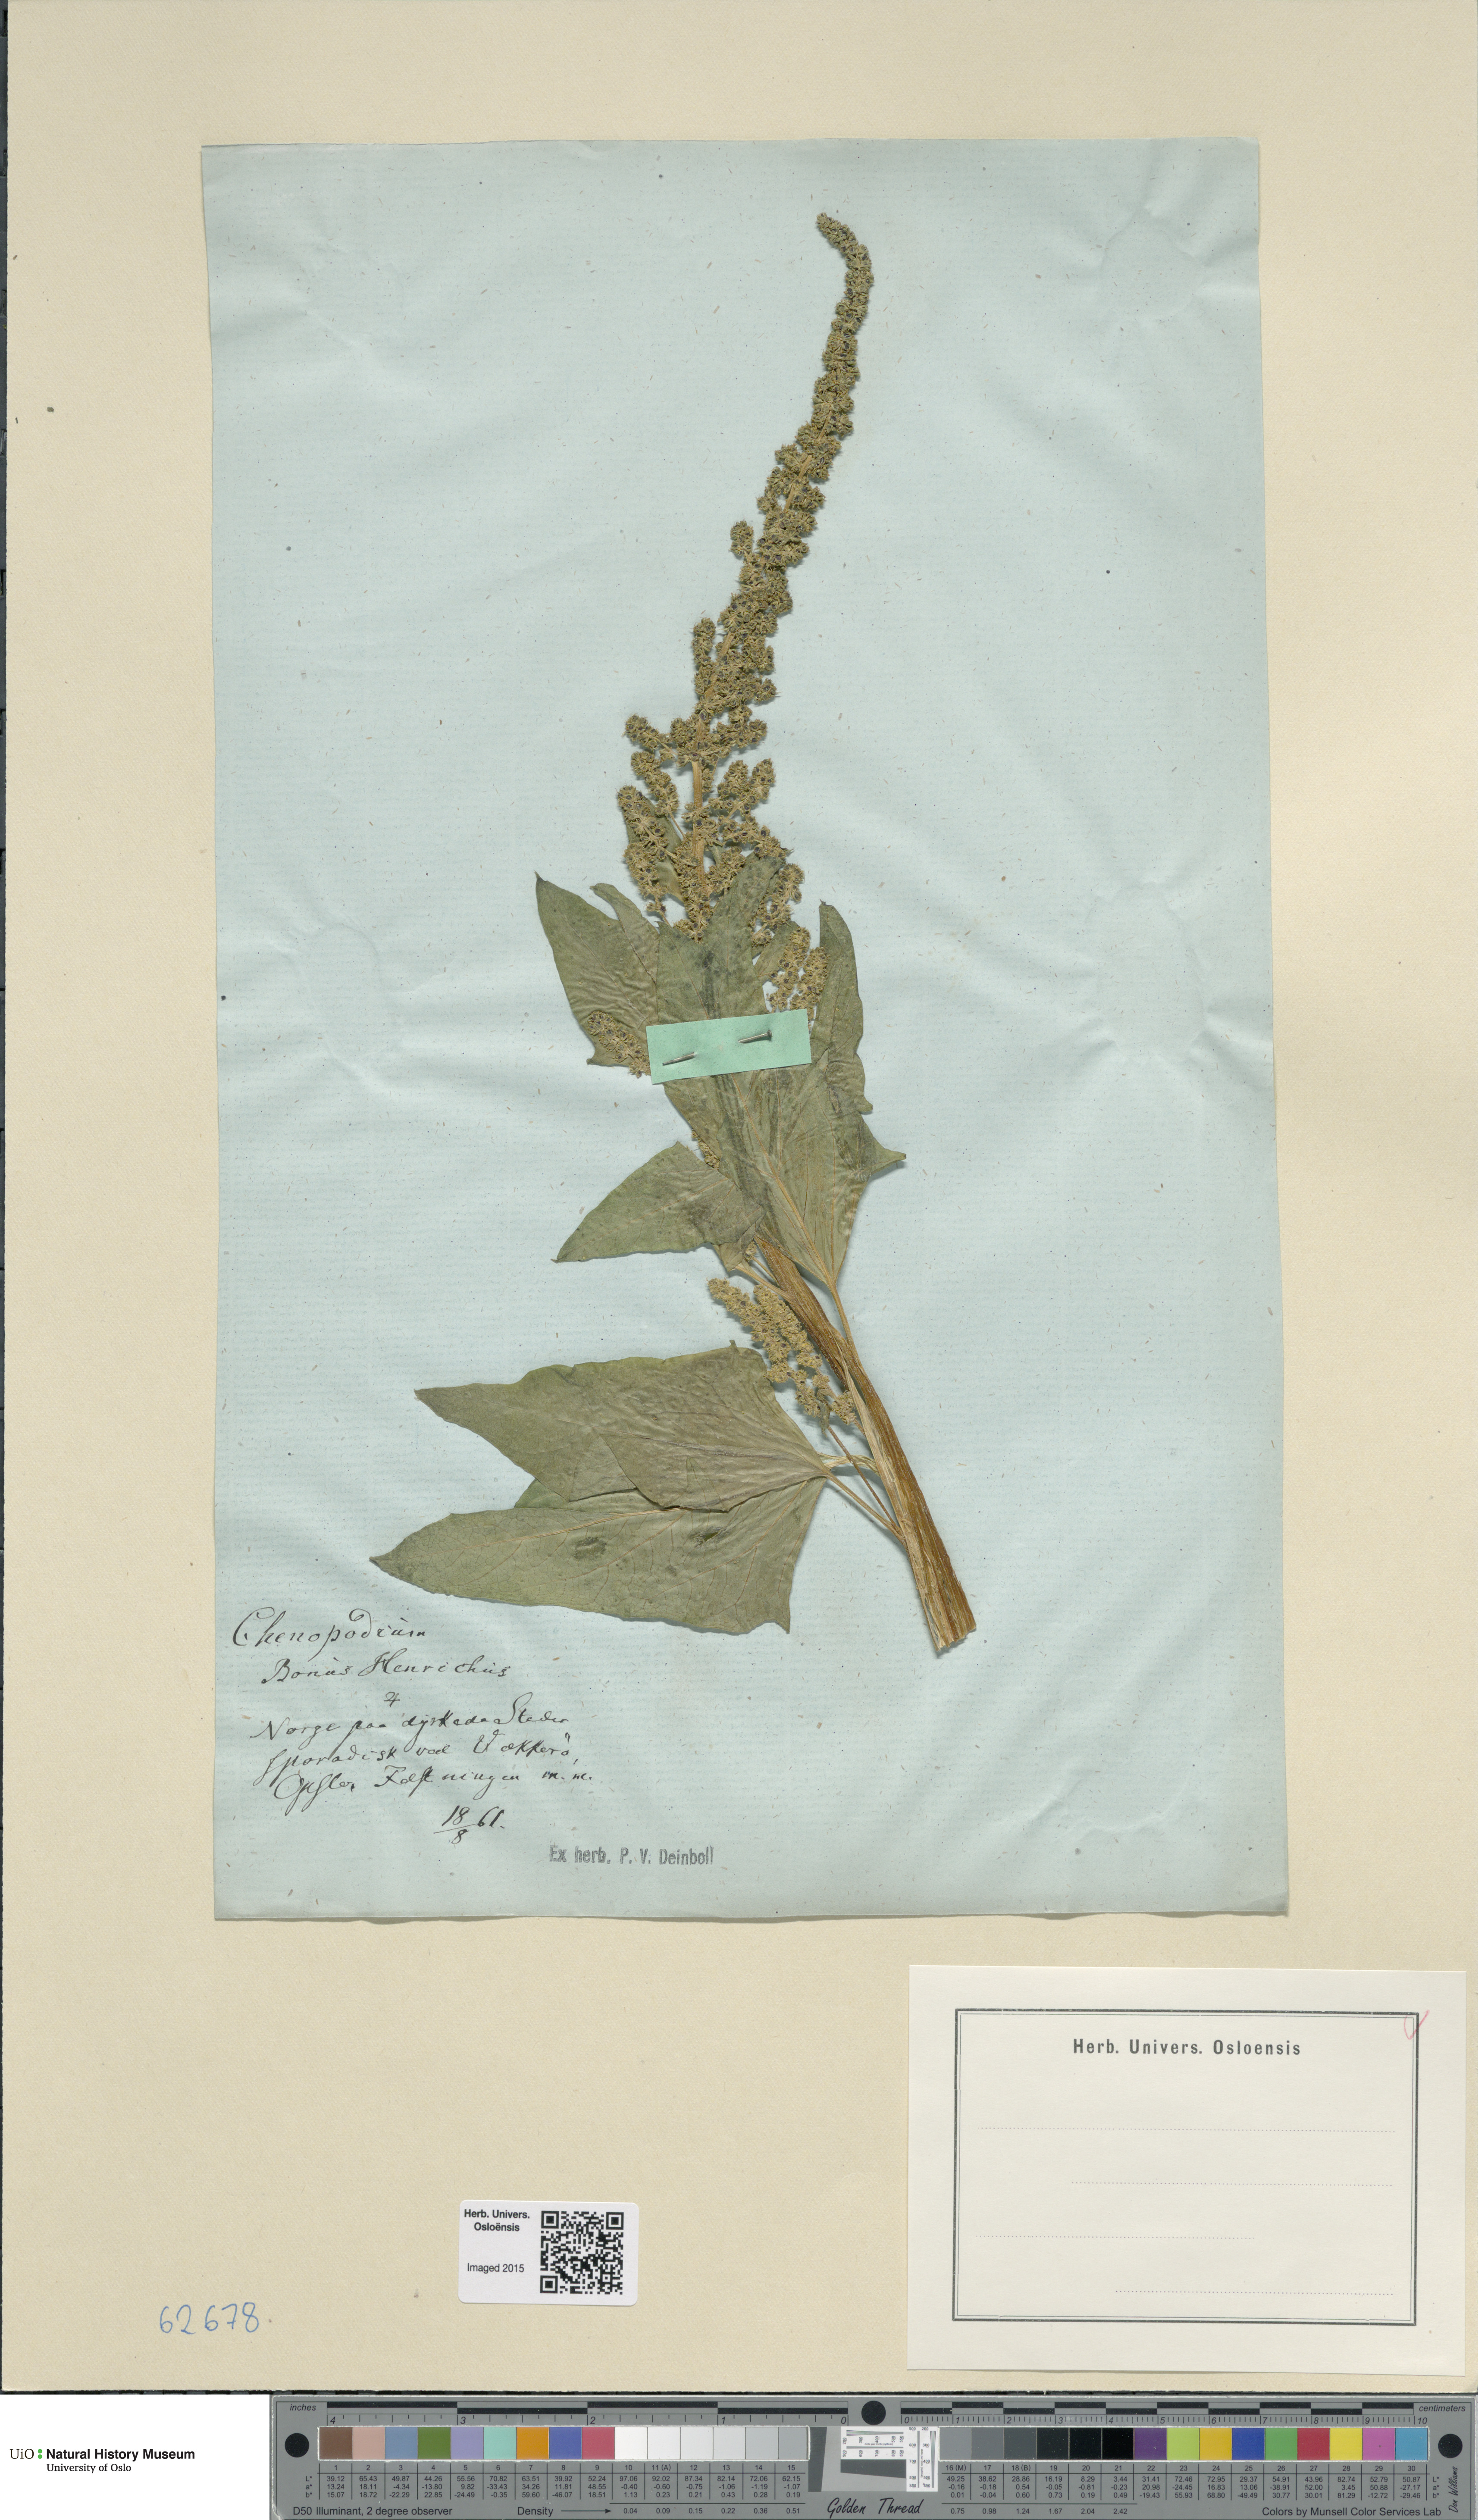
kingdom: Plantae
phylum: Tracheophyta
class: Magnoliopsida
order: Caryophyllales
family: Amaranthaceae
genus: Blitum
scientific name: Blitum bonus-henricus
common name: Good king henry
